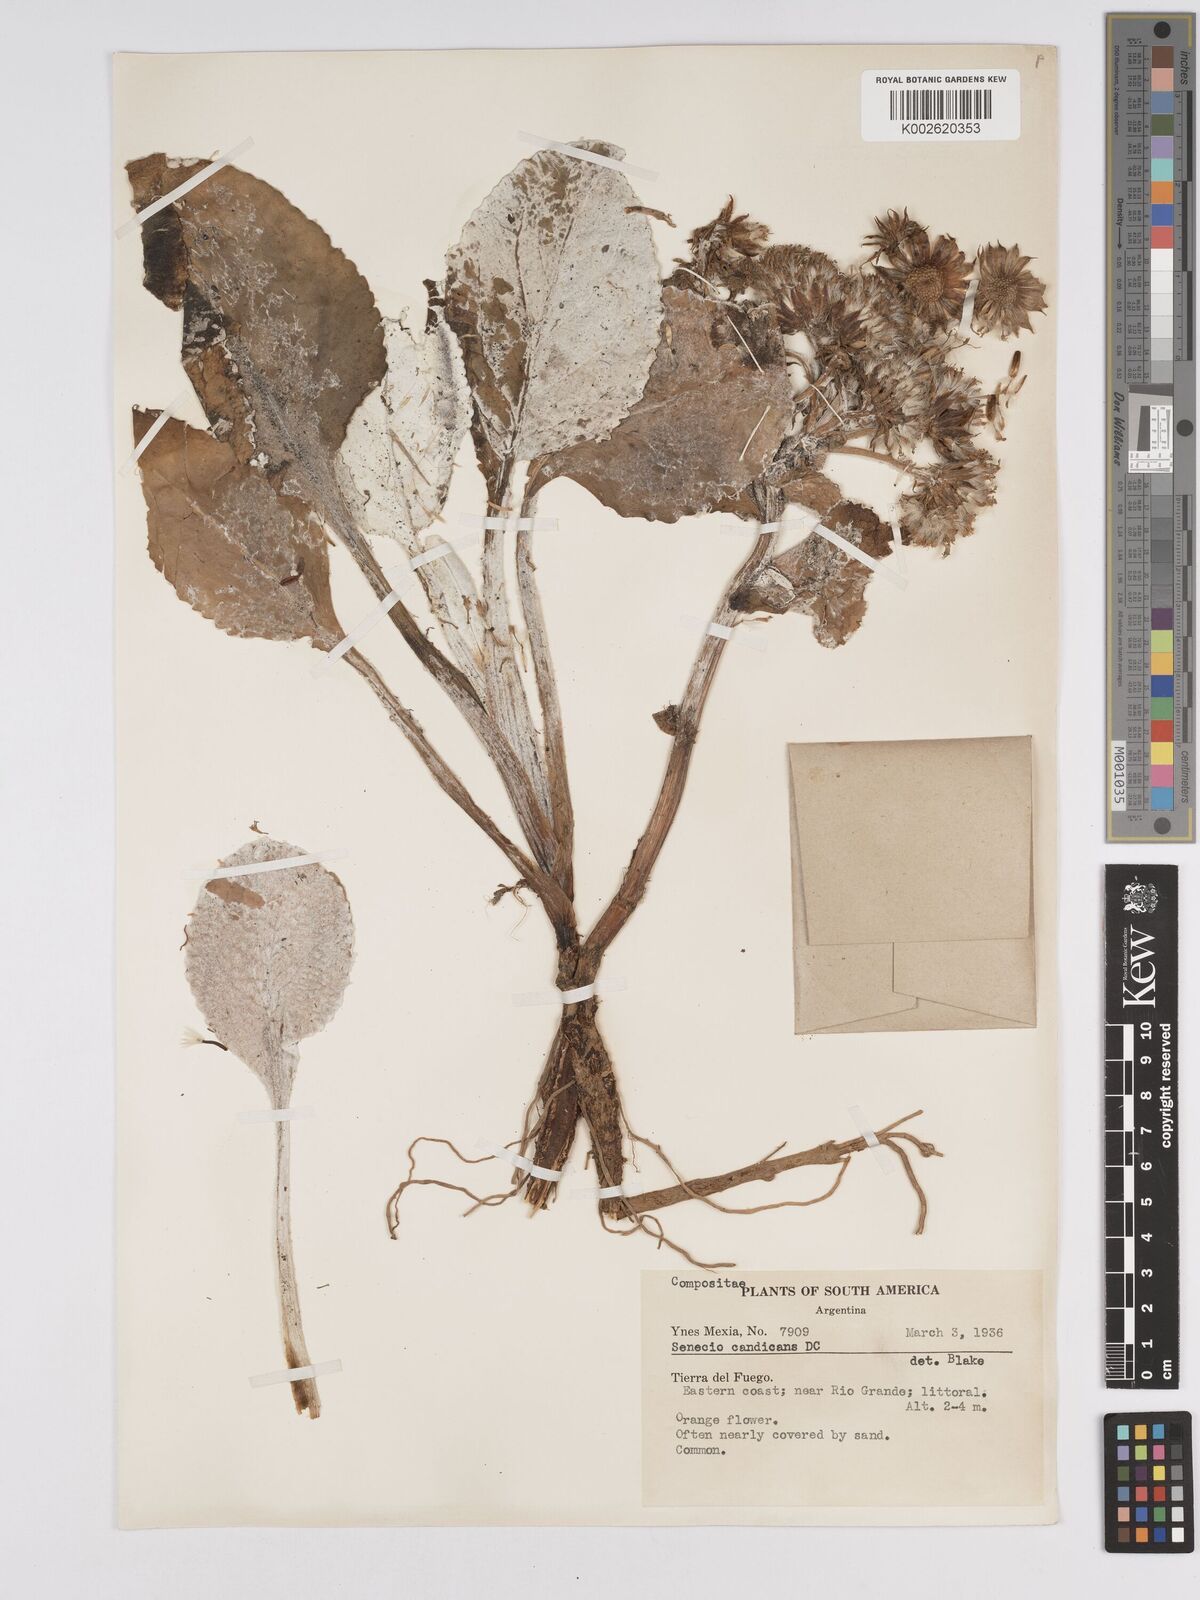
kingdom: Plantae
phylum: Tracheophyta
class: Magnoliopsida
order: Asterales
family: Asteraceae
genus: Senecio
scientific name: Senecio candidans
